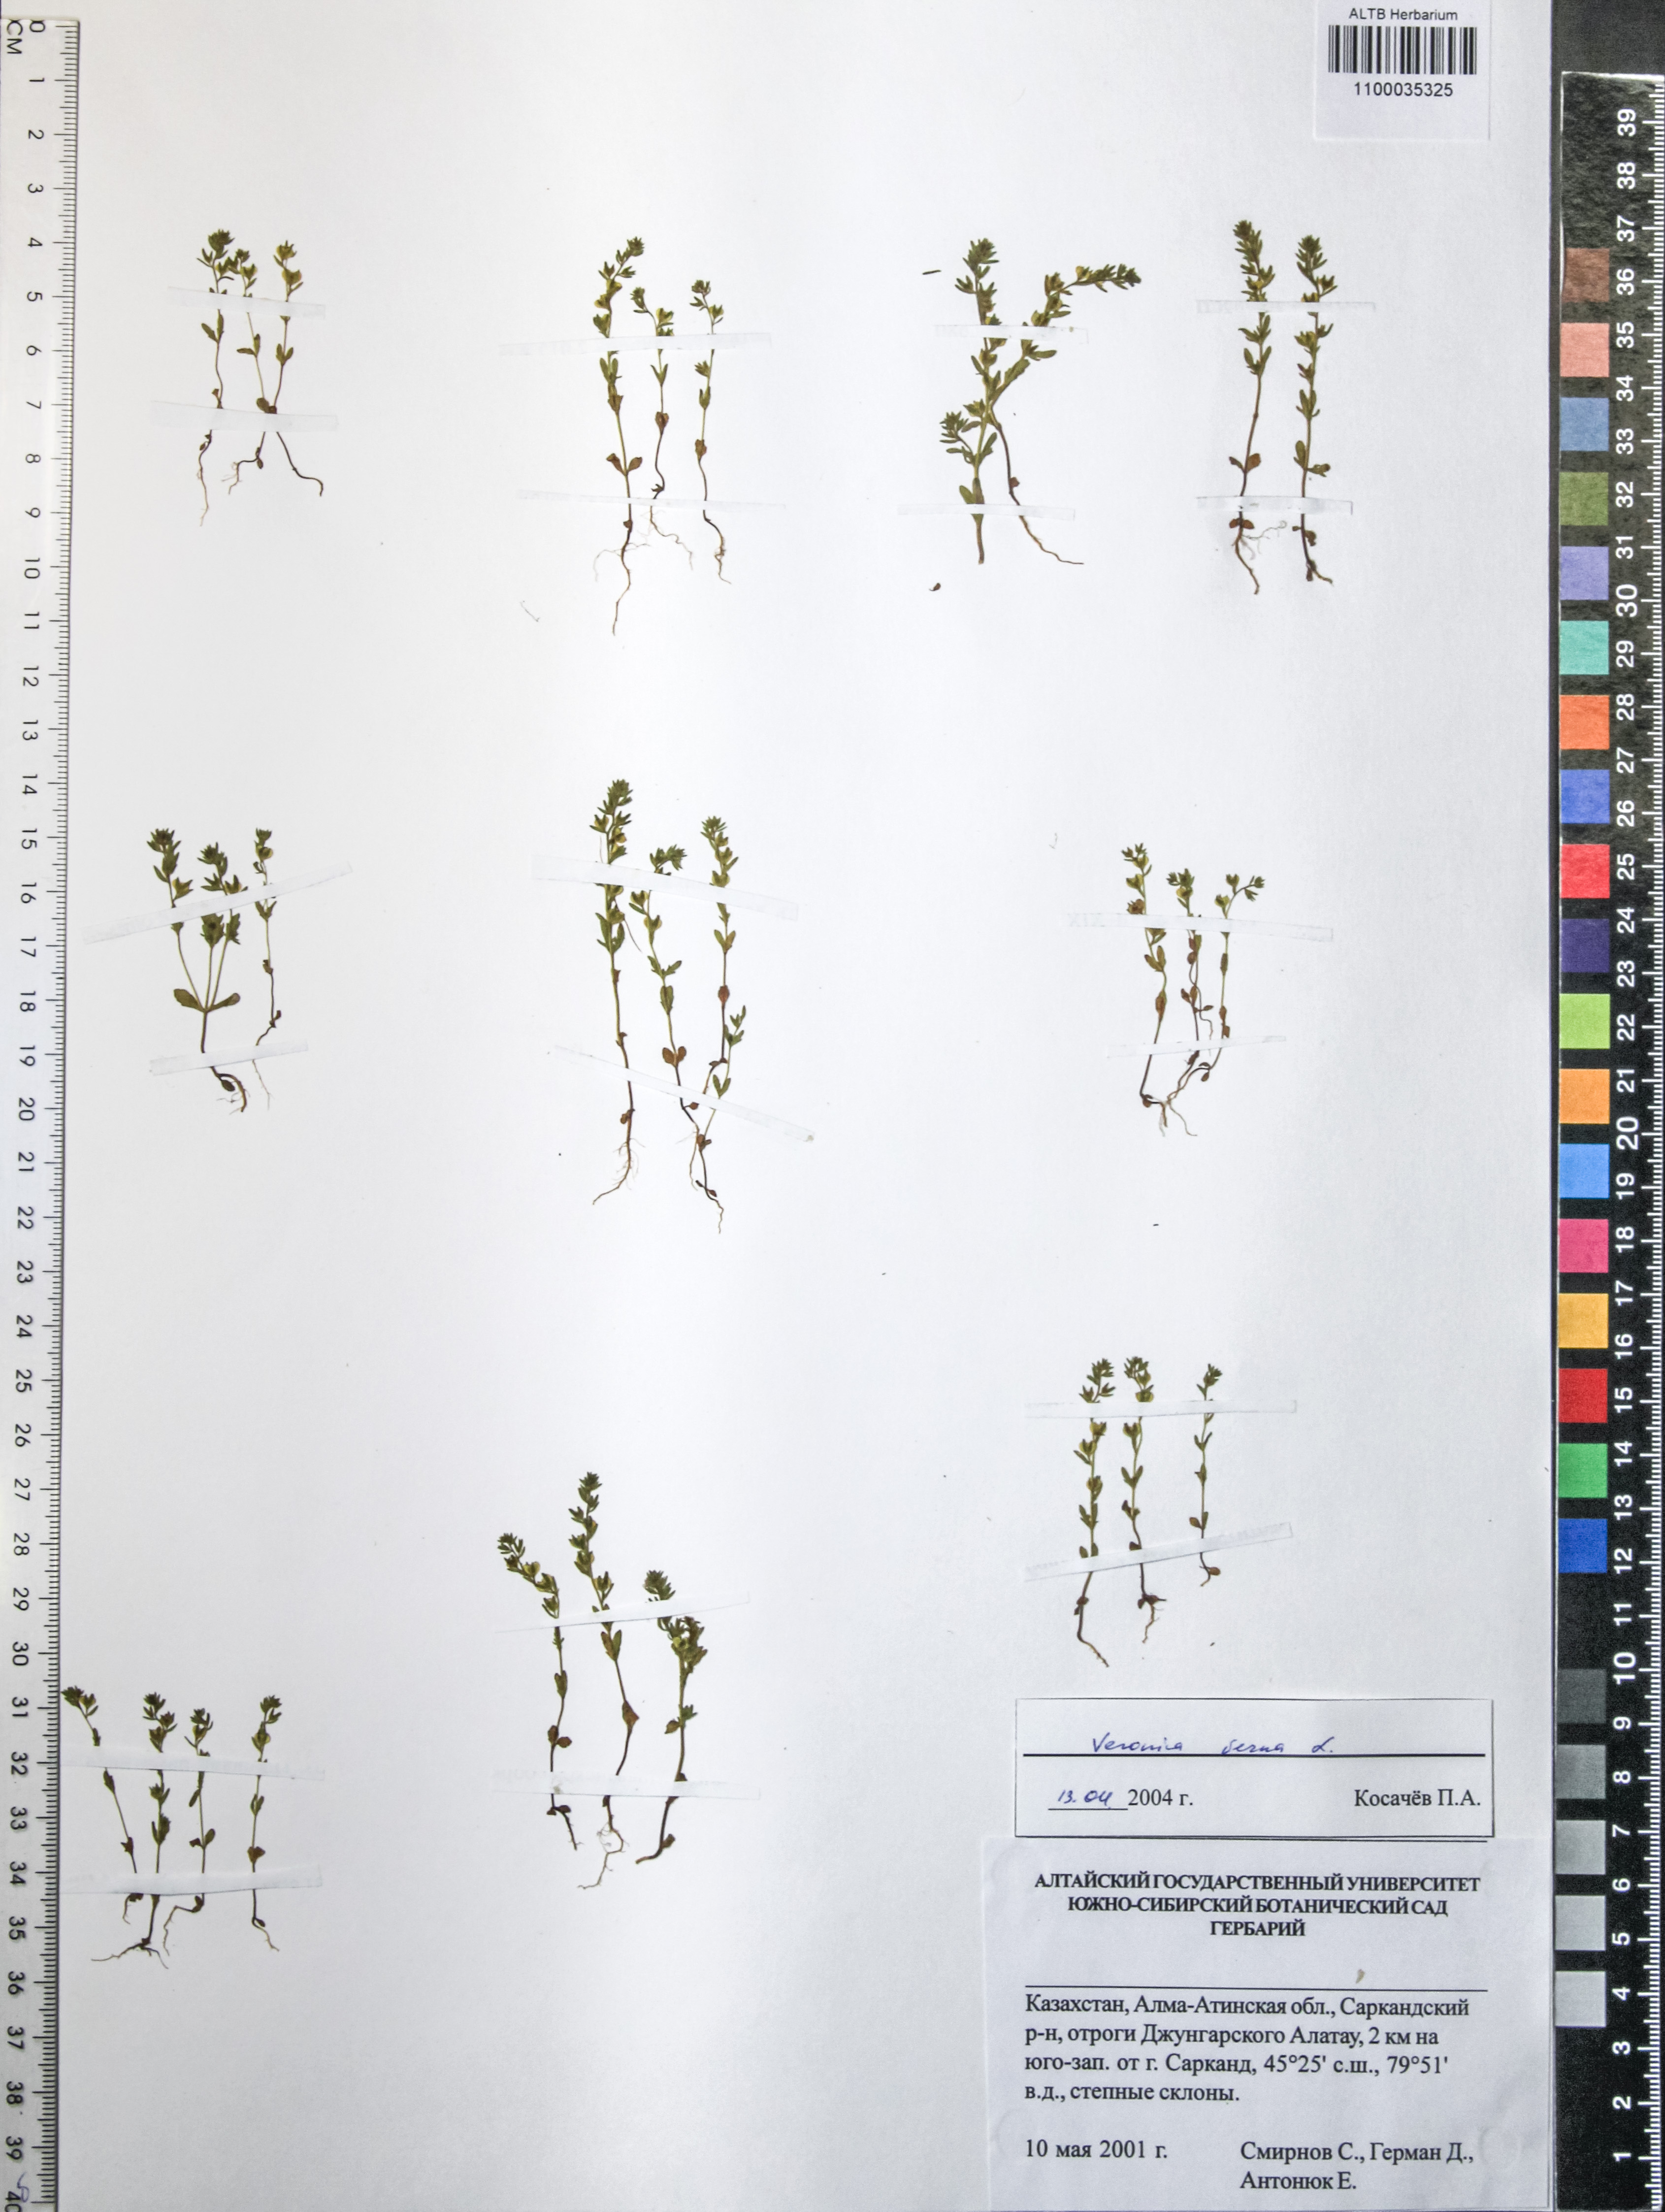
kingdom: Plantae
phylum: Tracheophyta
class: Magnoliopsida
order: Lamiales
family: Plantaginaceae
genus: Veronica
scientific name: Veronica verna
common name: Spring speedwell
